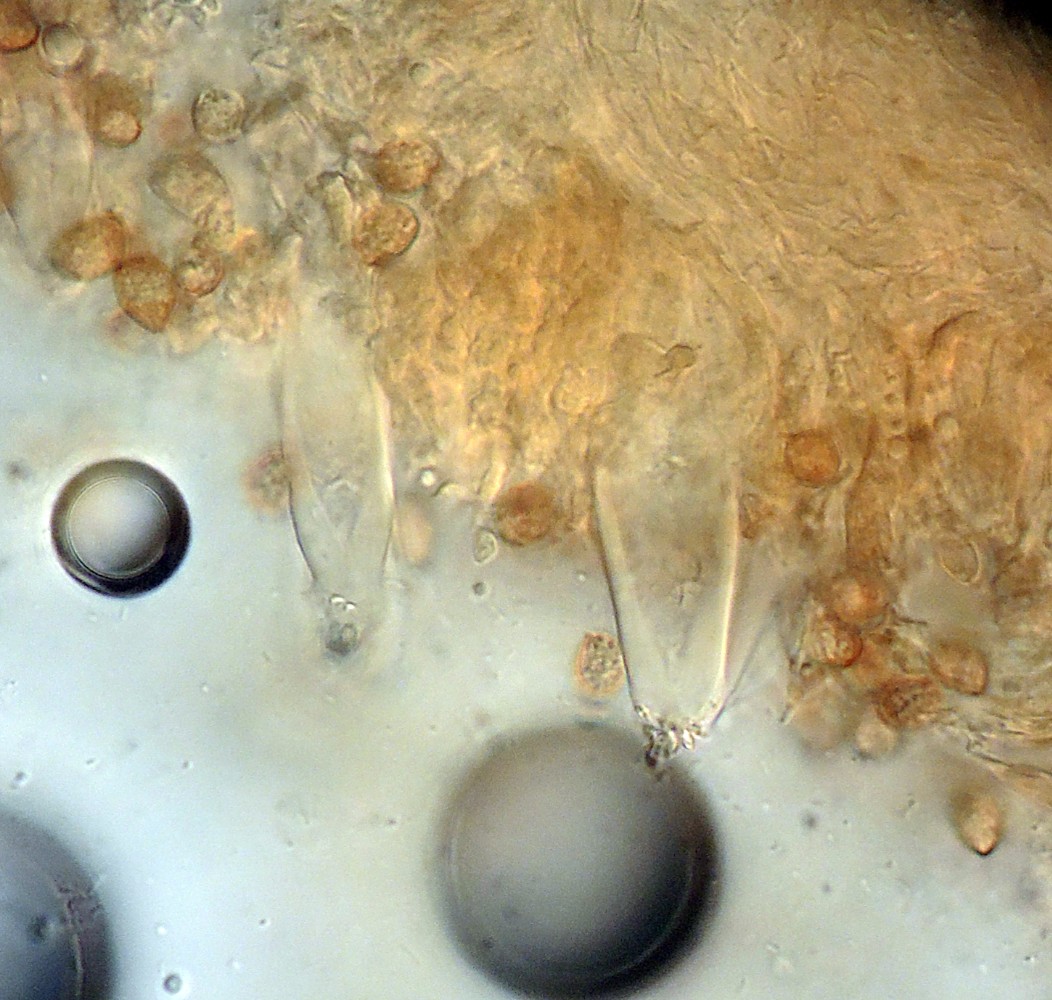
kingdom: Fungi
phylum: Basidiomycota
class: Agaricomycetes
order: Agaricales
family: Inocybaceae
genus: Inocybe
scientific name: Inocybe incarnata
